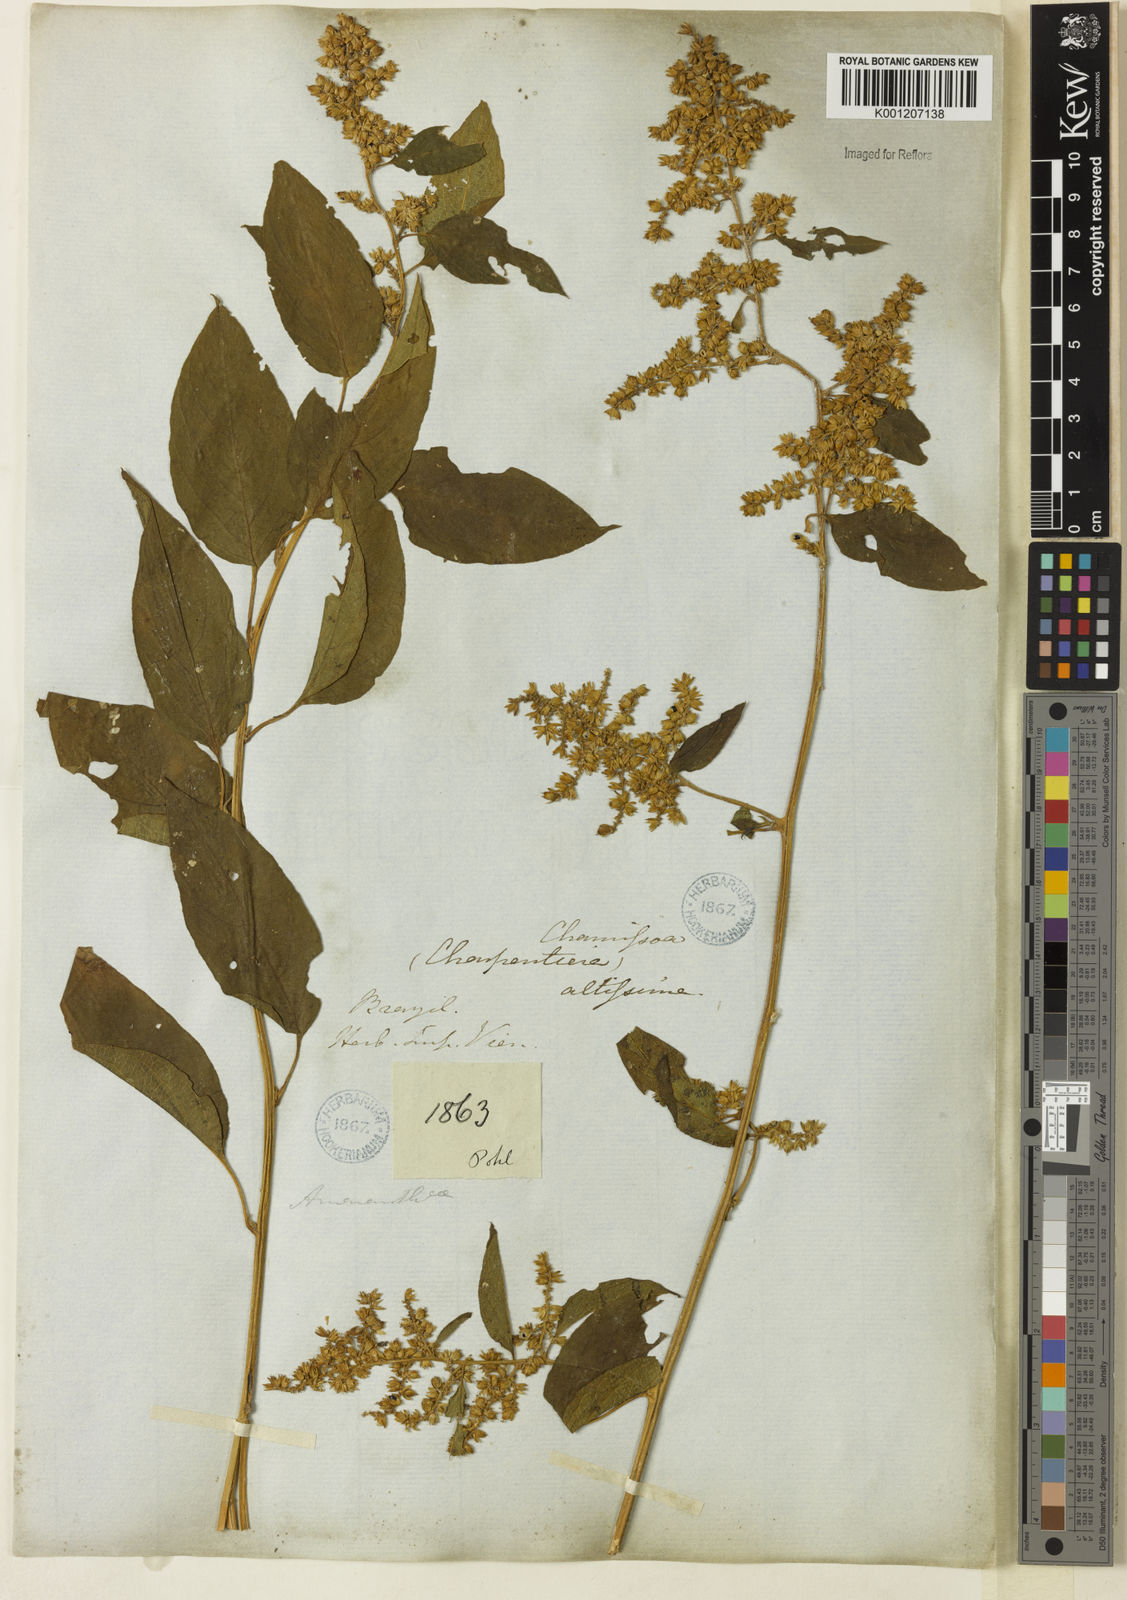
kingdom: Plantae
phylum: Tracheophyta
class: Magnoliopsida
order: Caryophyllales
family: Amaranthaceae
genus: Chamissoa
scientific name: Chamissoa altissima
